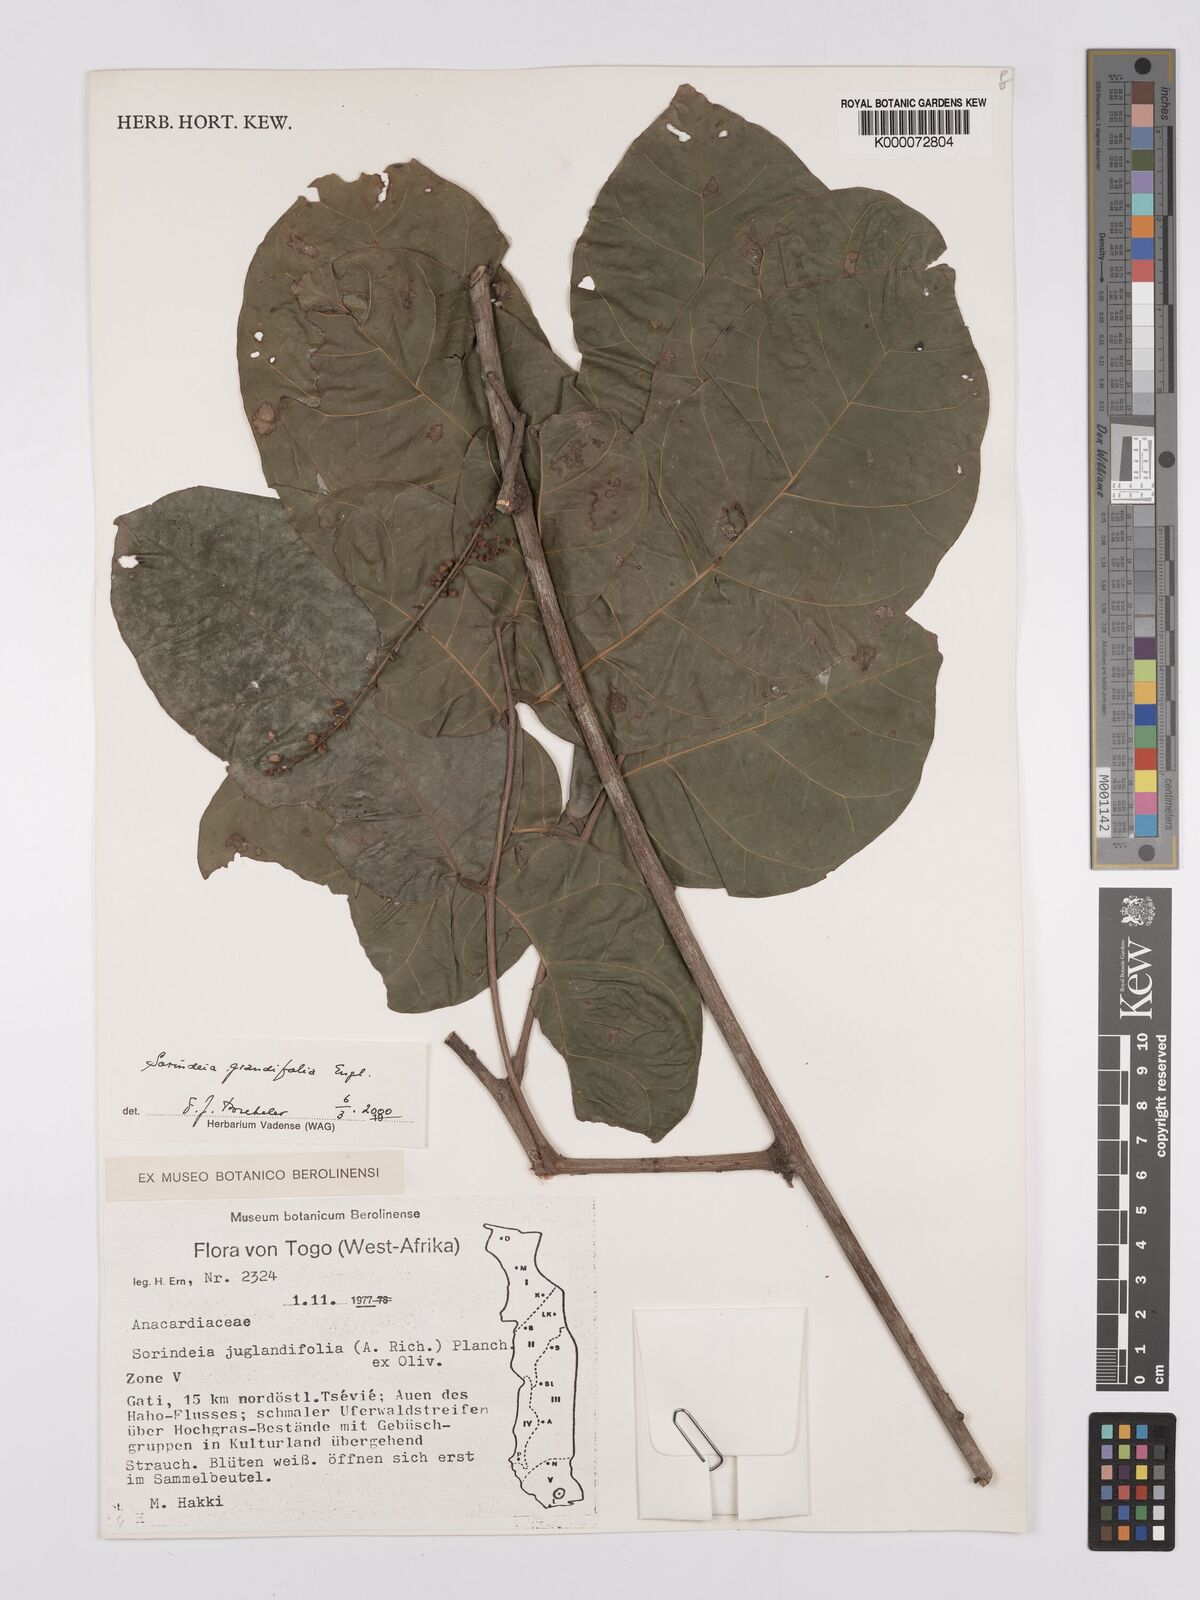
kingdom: Plantae
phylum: Tracheophyta
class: Magnoliopsida
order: Sapindales
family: Anacardiaceae
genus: Sorindeia
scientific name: Sorindeia grandifolia
